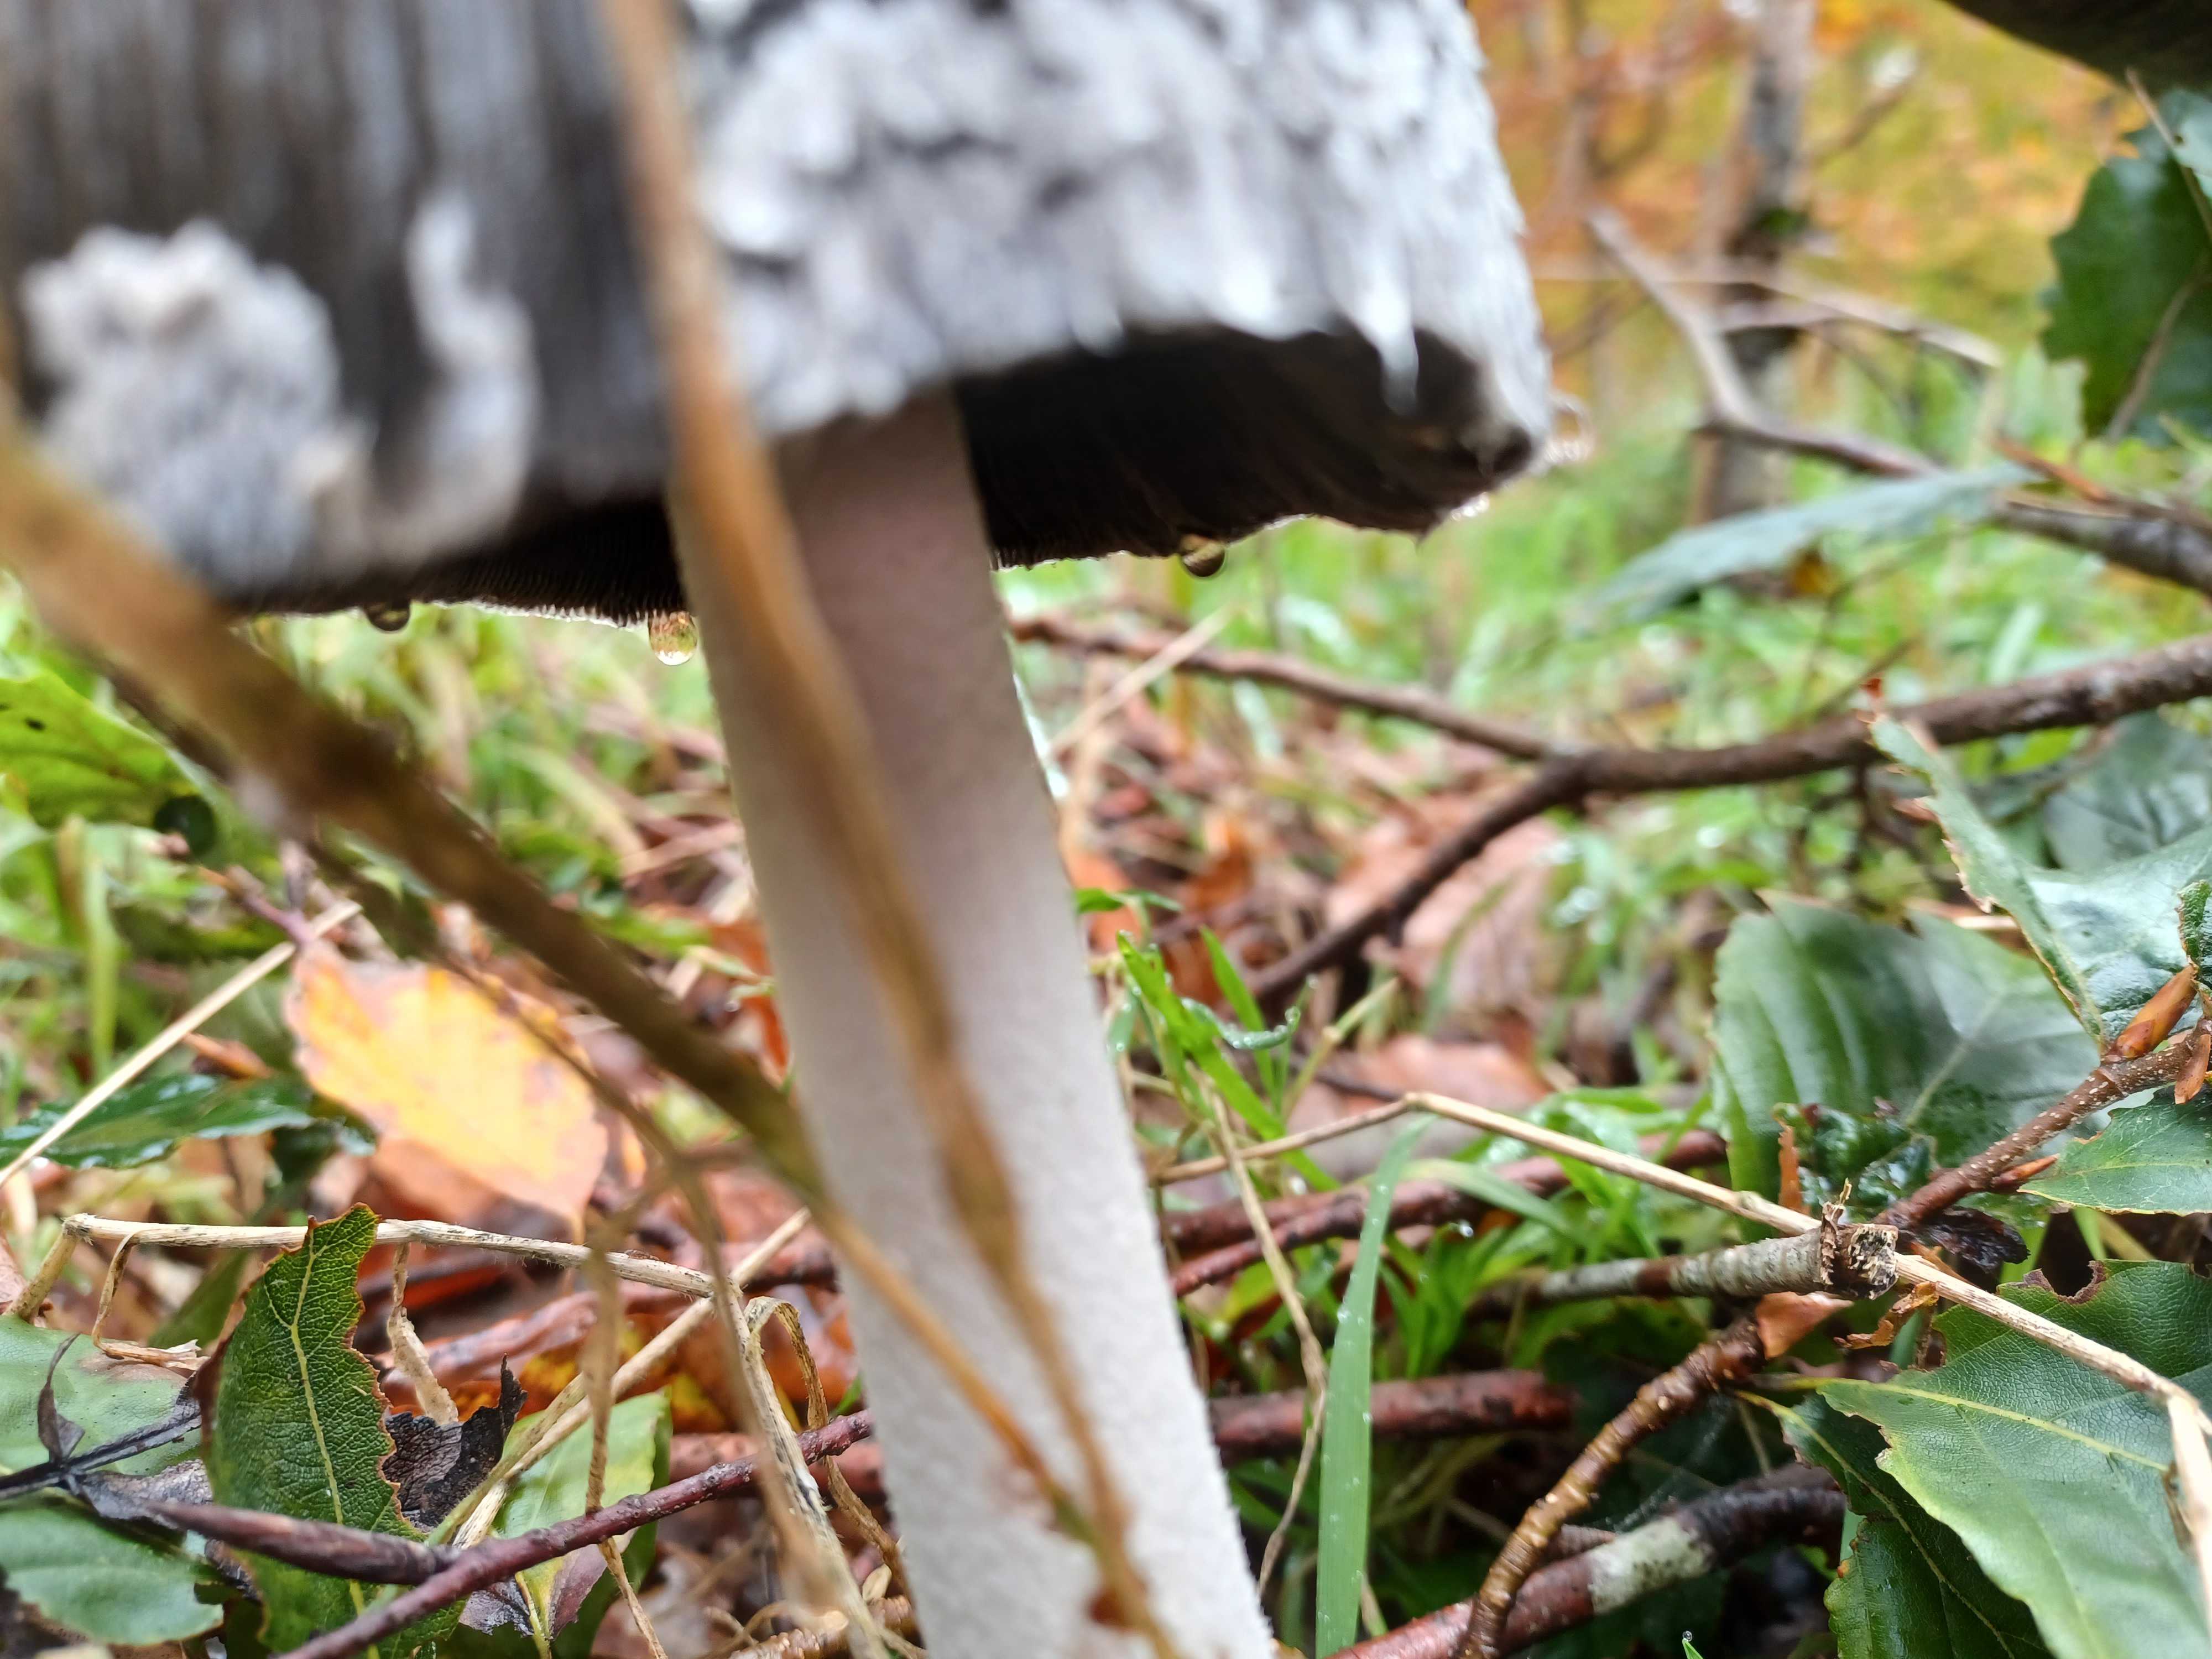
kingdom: Fungi
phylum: Basidiomycota
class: Agaricomycetes
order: Agaricales
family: Psathyrellaceae
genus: Coprinopsis
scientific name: Coprinopsis picacea
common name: skade-blækhat
